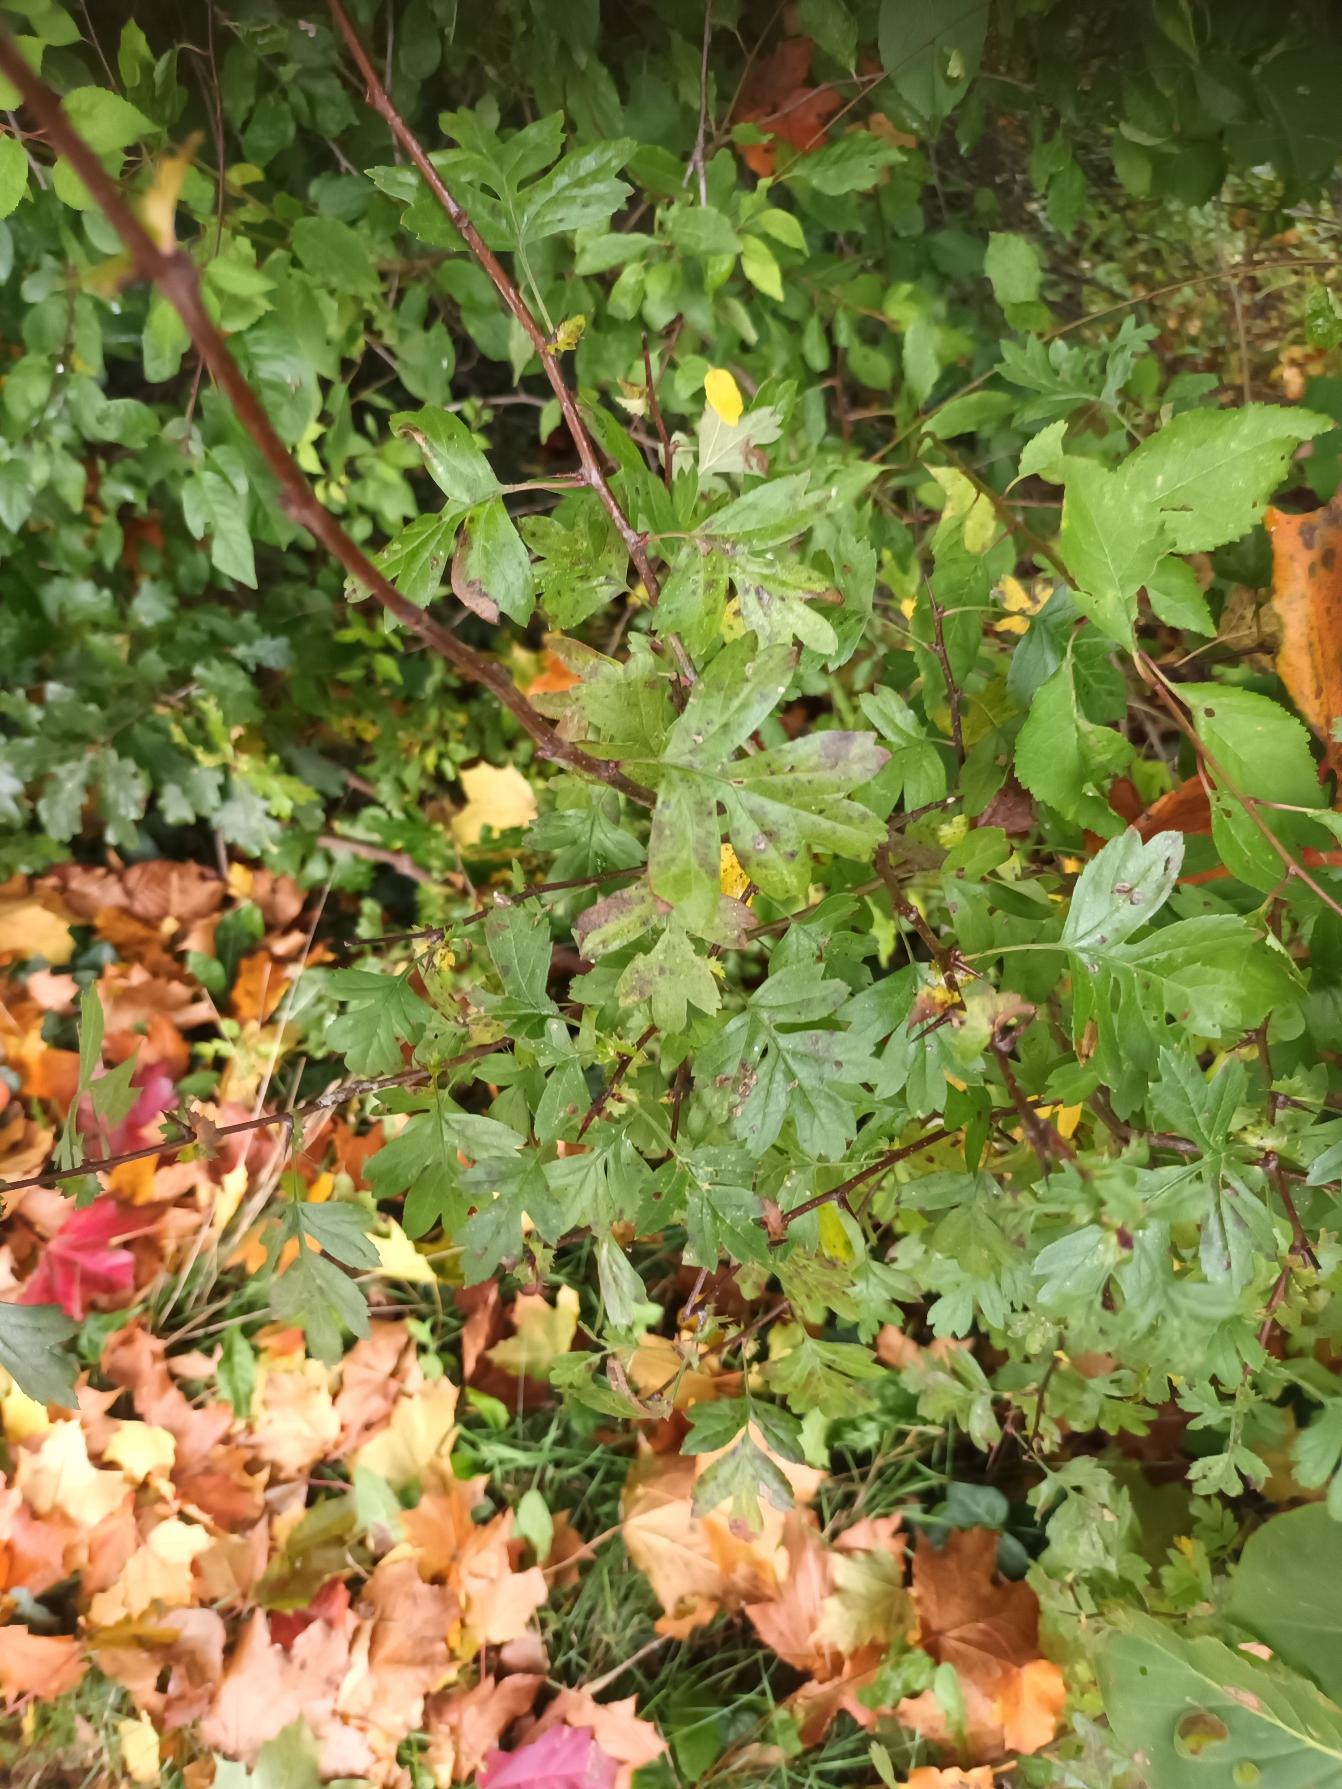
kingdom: Plantae
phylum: Tracheophyta
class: Magnoliopsida
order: Rosales
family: Rosaceae
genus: Crataegus
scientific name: Crataegus monogyna
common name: Engriflet hvidtjørn
